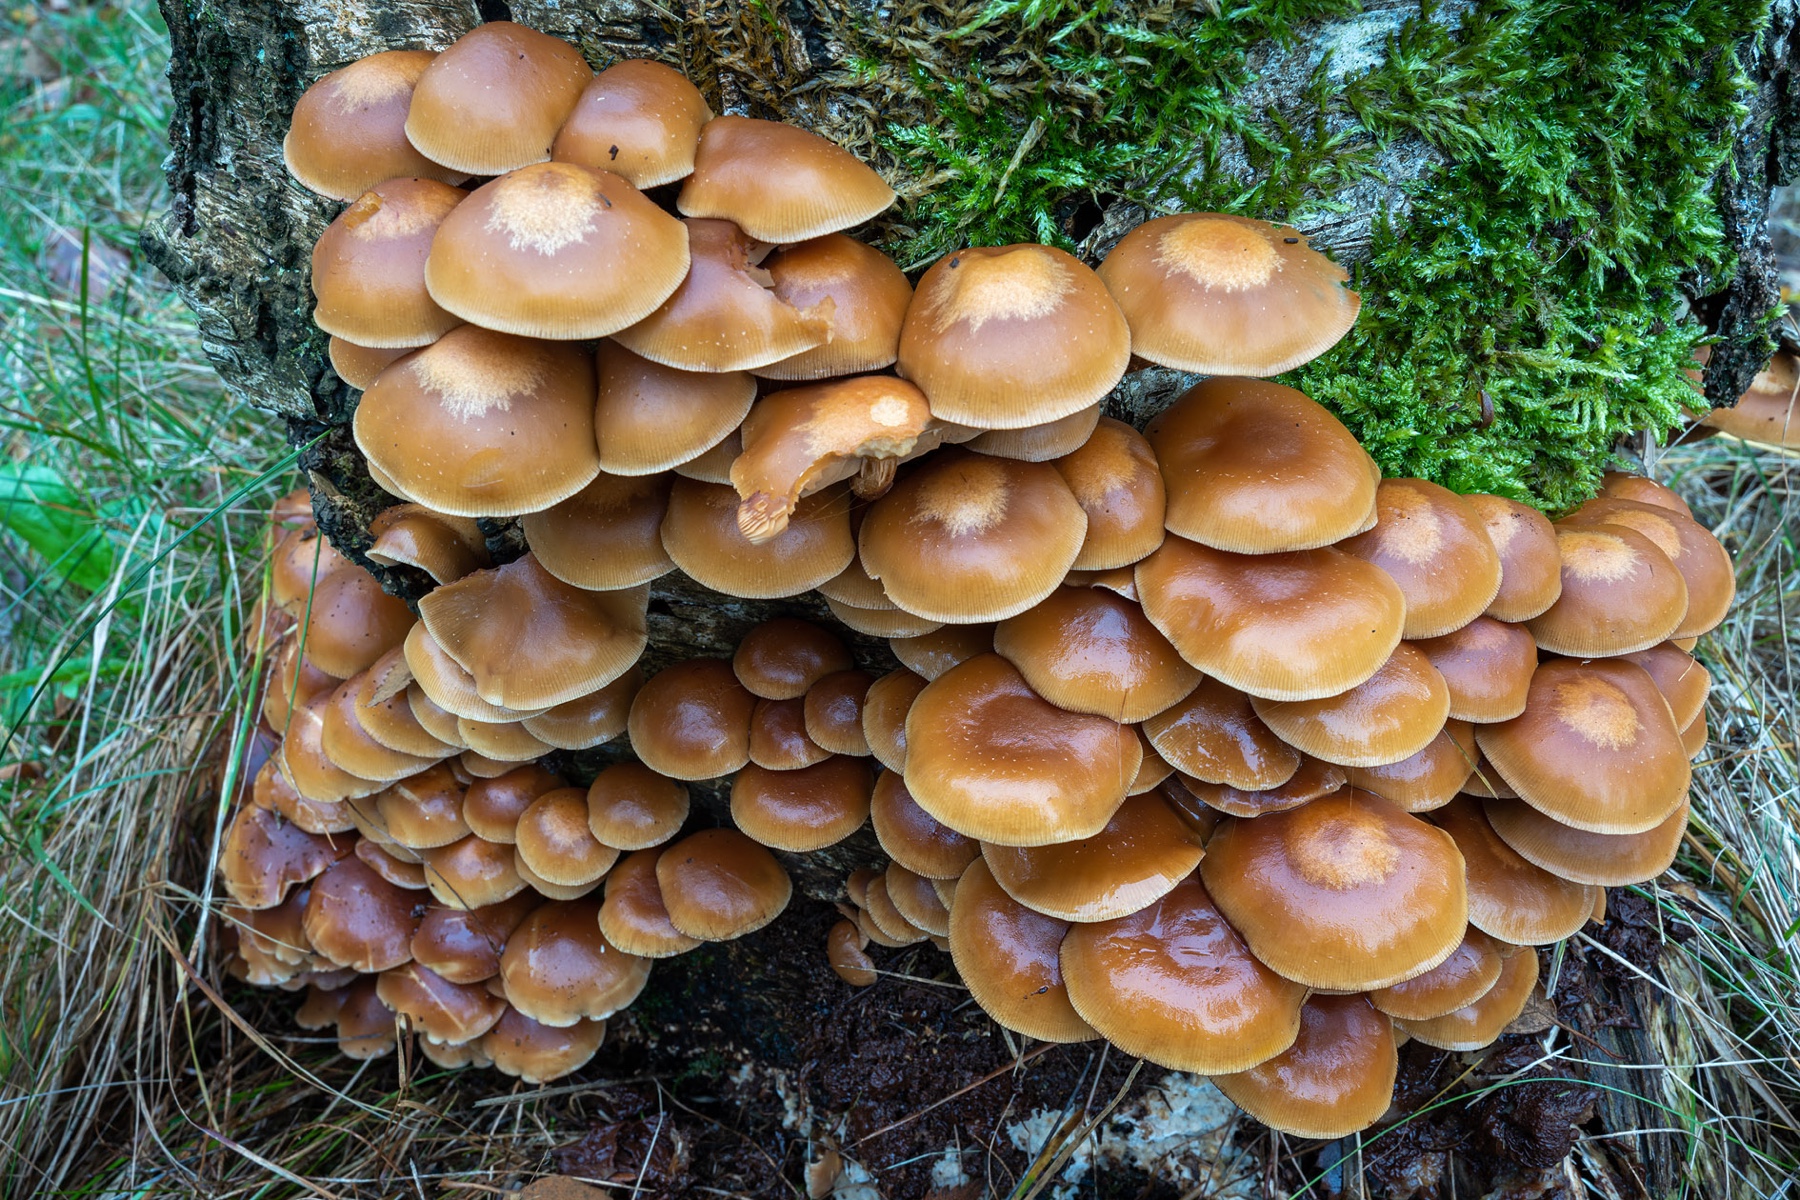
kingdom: Fungi
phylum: Basidiomycota
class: Agaricomycetes
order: Agaricales
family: Strophariaceae
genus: Kuehneromyces
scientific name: Kuehneromyces mutabilis
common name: foranderlig skælhat
